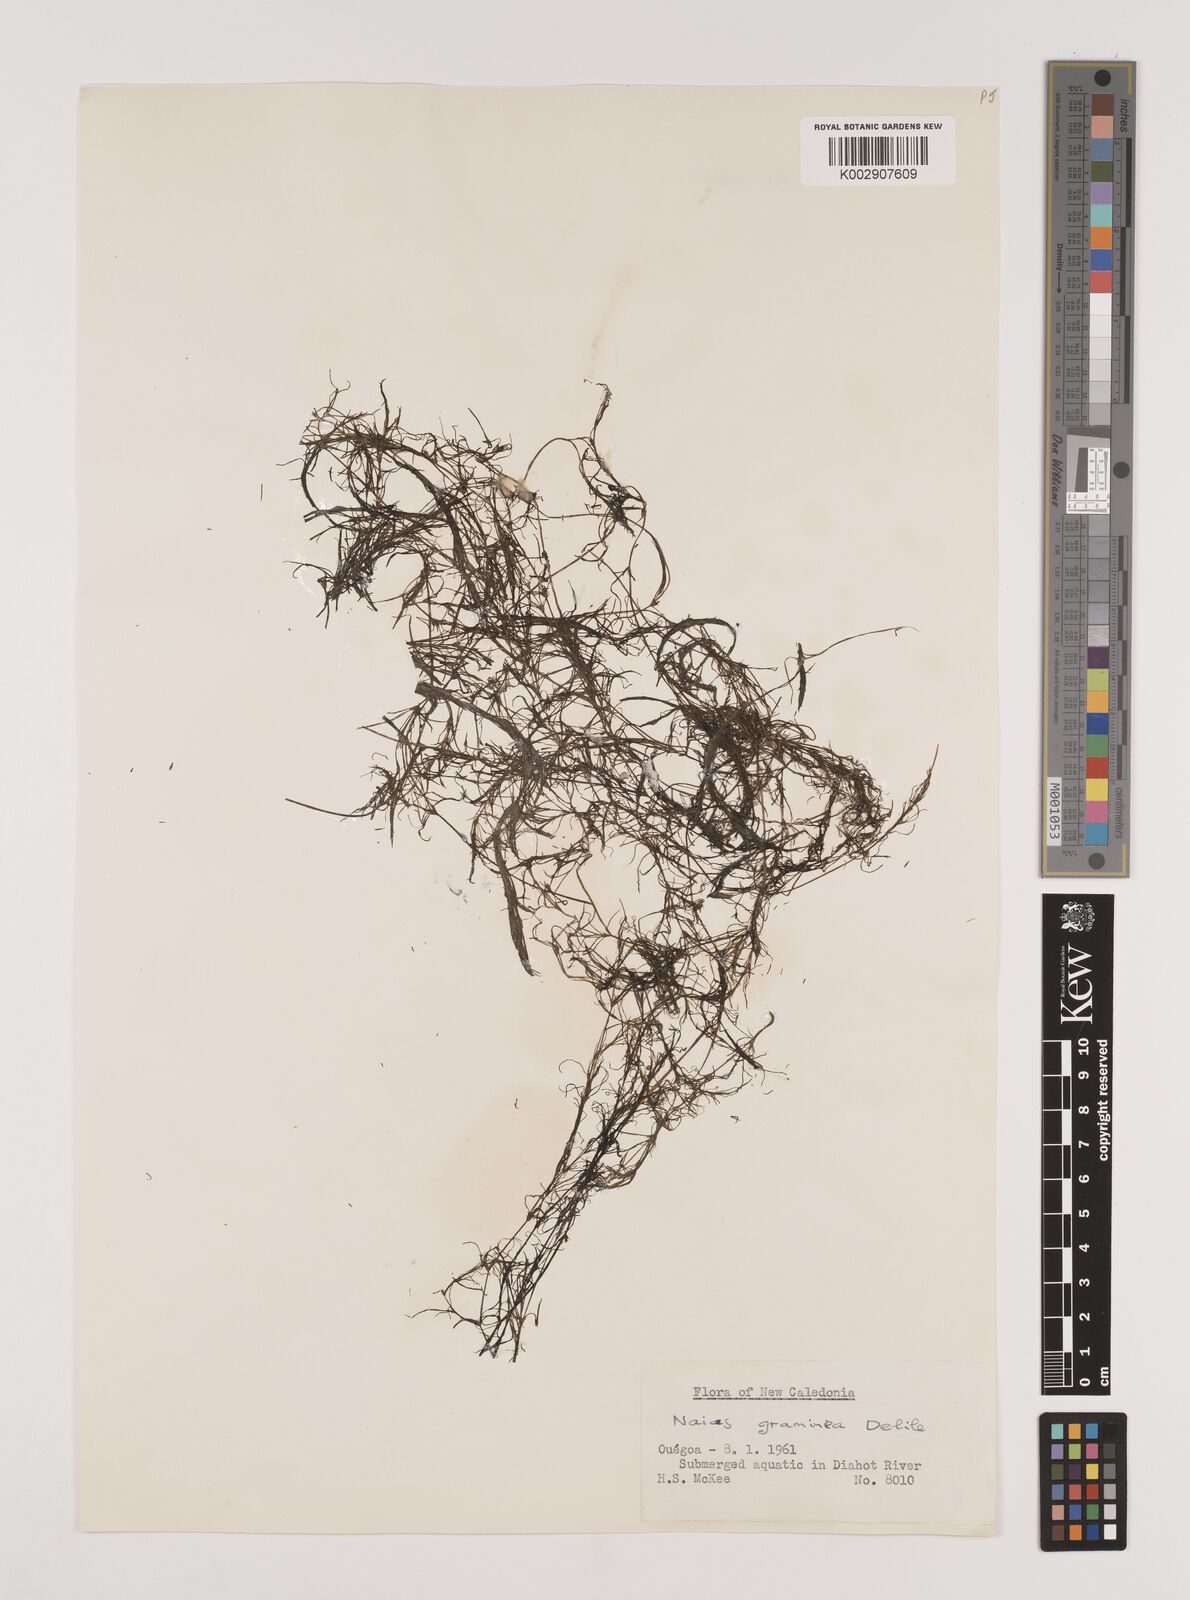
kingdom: Plantae
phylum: Tracheophyta
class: Liliopsida
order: Alismatales
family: Hydrocharitaceae
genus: Najas
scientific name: Najas graminea
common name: Ricefield waternymph
